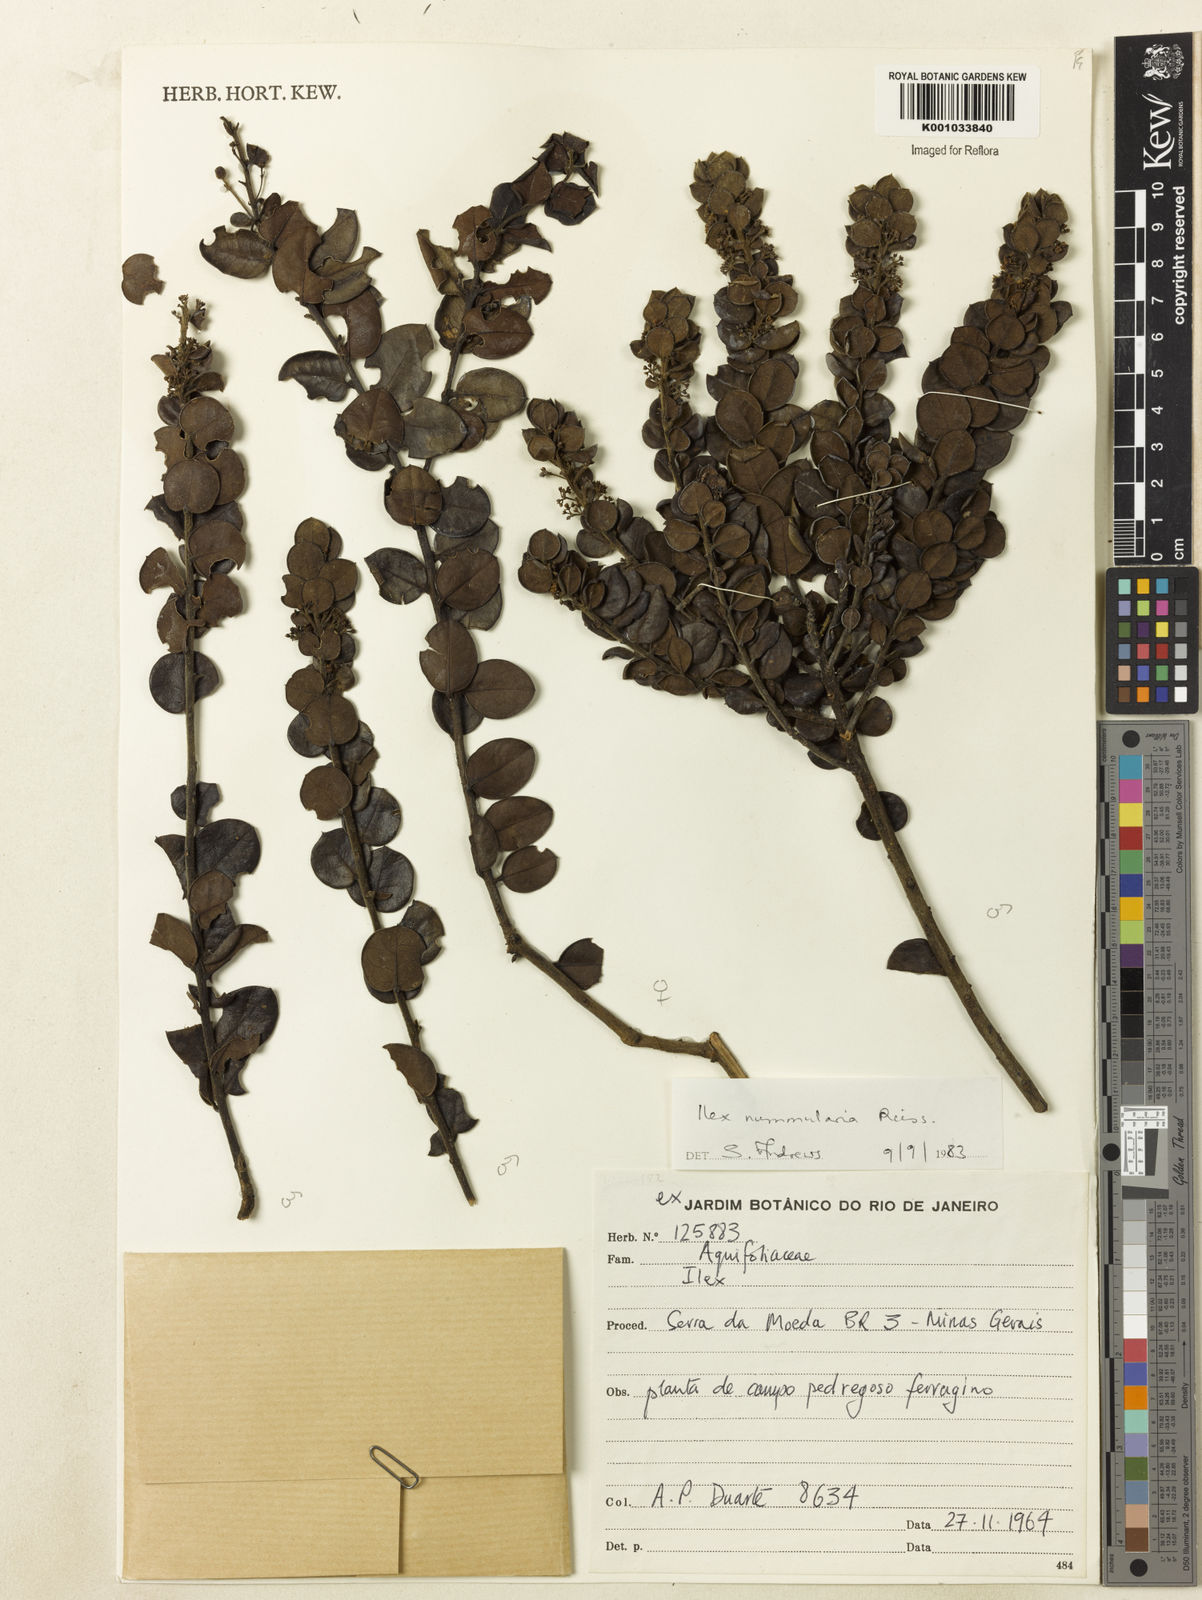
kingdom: Plantae
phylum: Tracheophyta
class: Magnoliopsida
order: Aquifoliales
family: Aquifoliaceae
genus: Ilex
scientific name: Ilex nummularia
